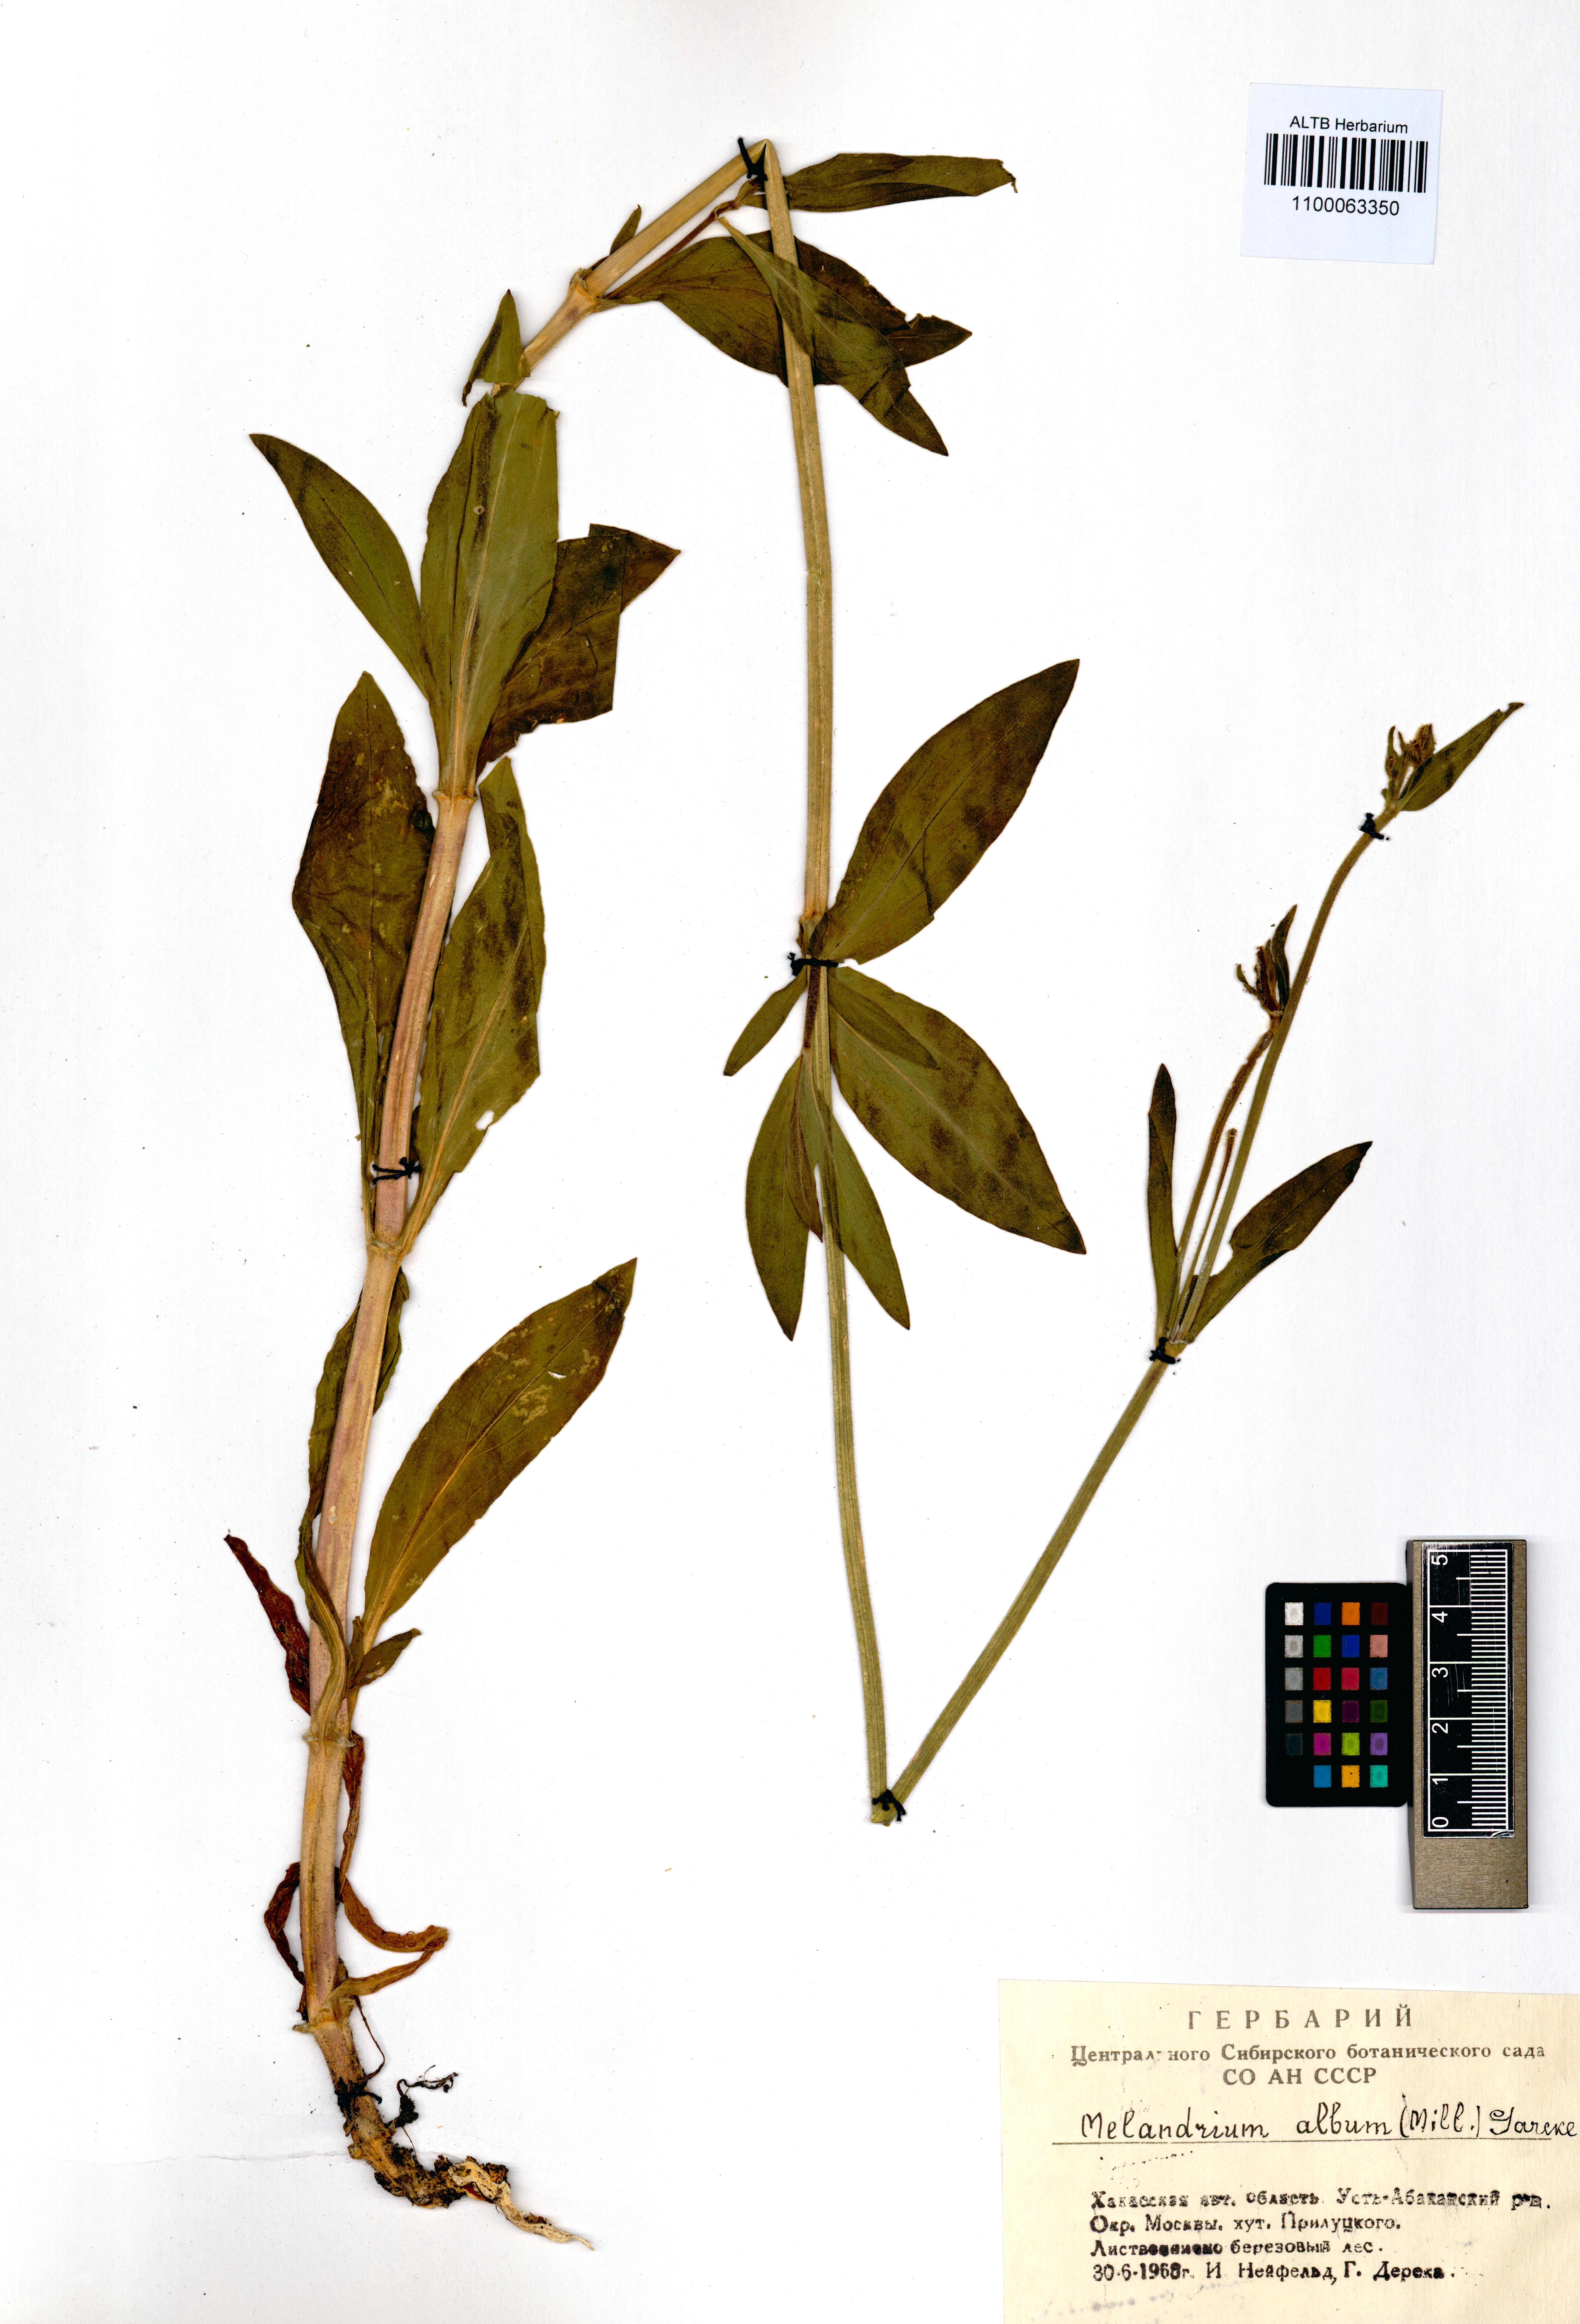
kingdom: Plantae
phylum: Tracheophyta
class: Magnoliopsida
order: Caryophyllales
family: Caryophyllaceae
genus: Silene
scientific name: Silene latifolia
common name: White campion
